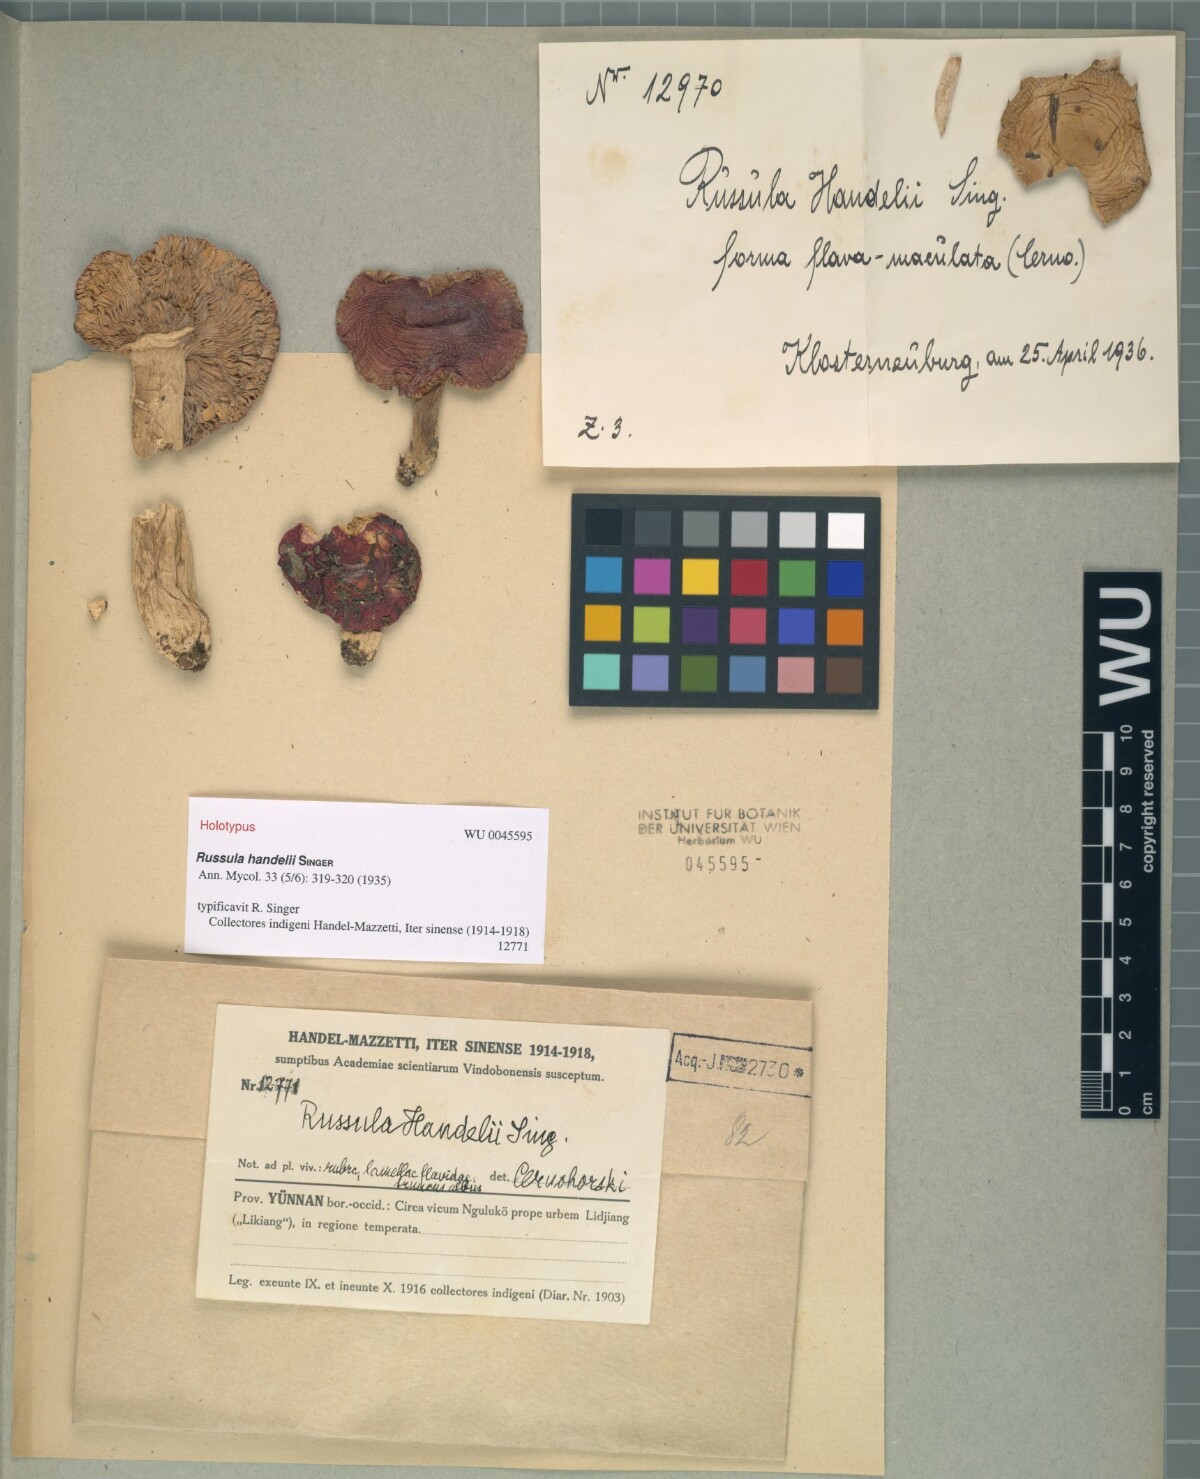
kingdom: Fungi
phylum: Basidiomycota
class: Agaricomycetes
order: Russulales
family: Russulaceae
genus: Russula
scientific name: Russula handelii
